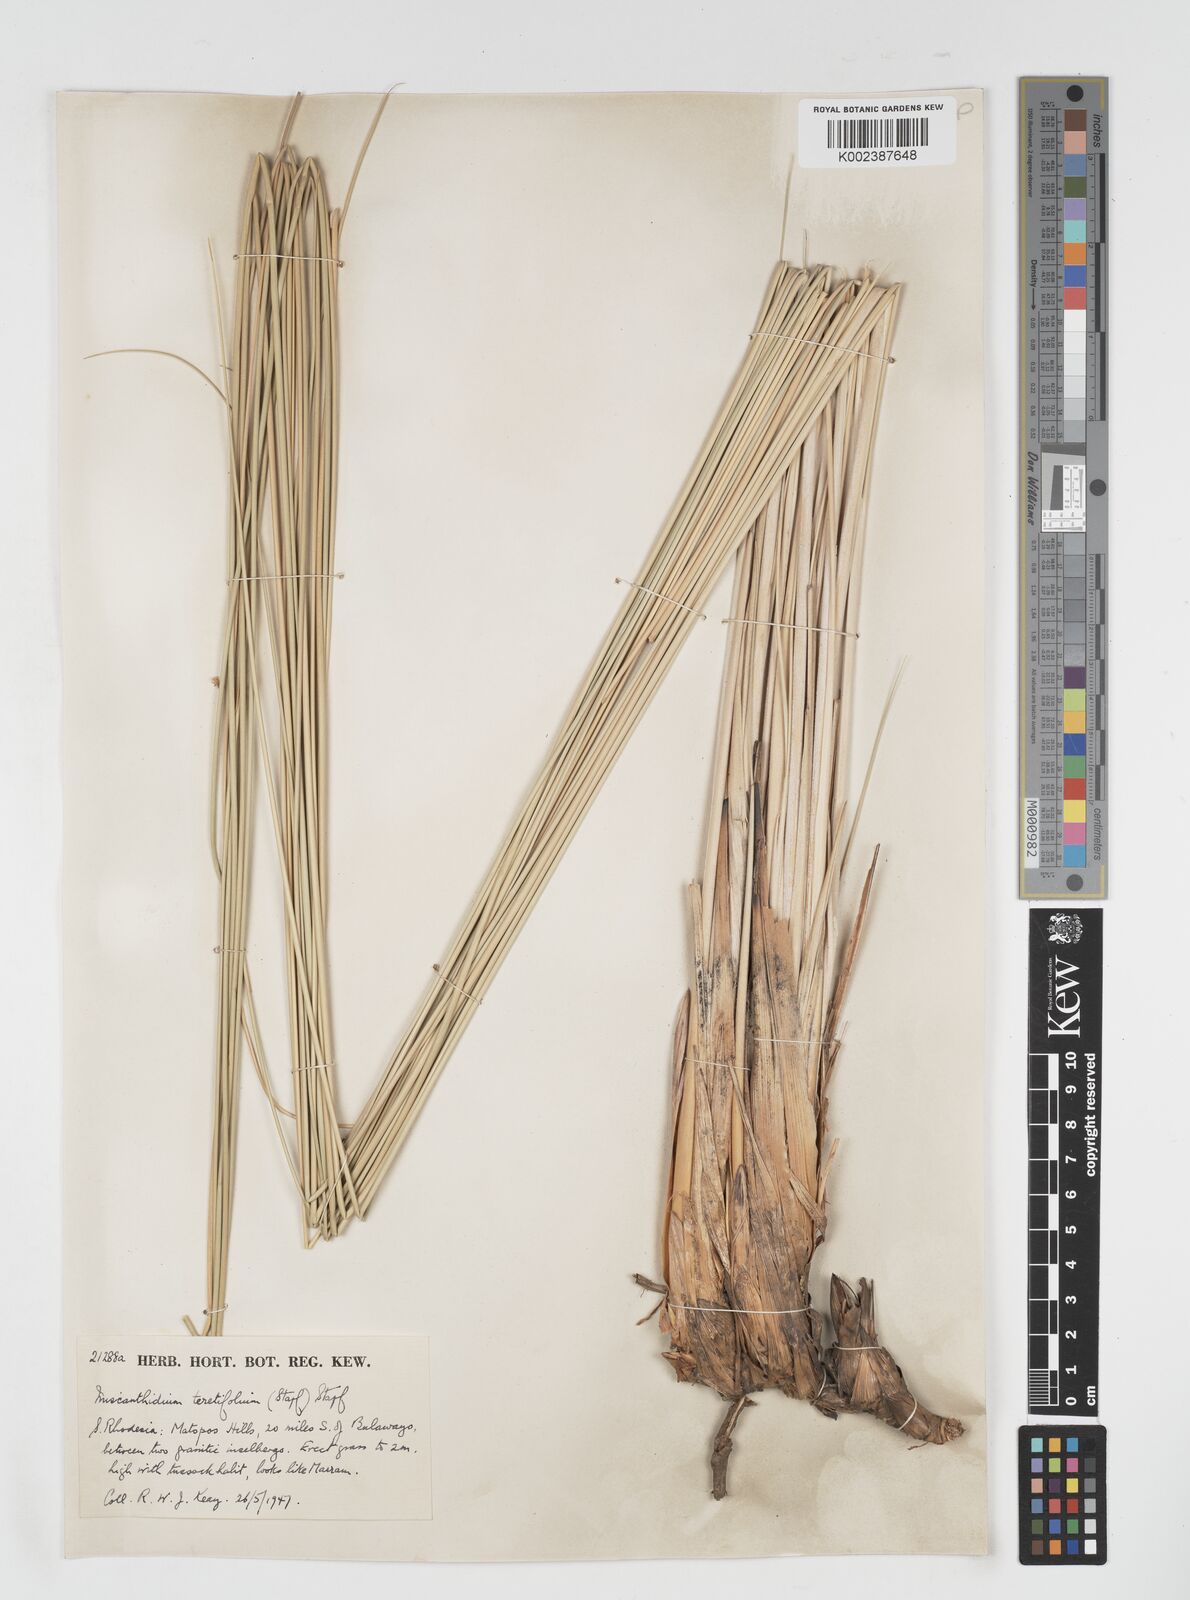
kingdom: Plantae
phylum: Tracheophyta
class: Liliopsida
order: Poales
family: Poaceae
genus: Miscanthidium
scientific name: Miscanthidium junceum
